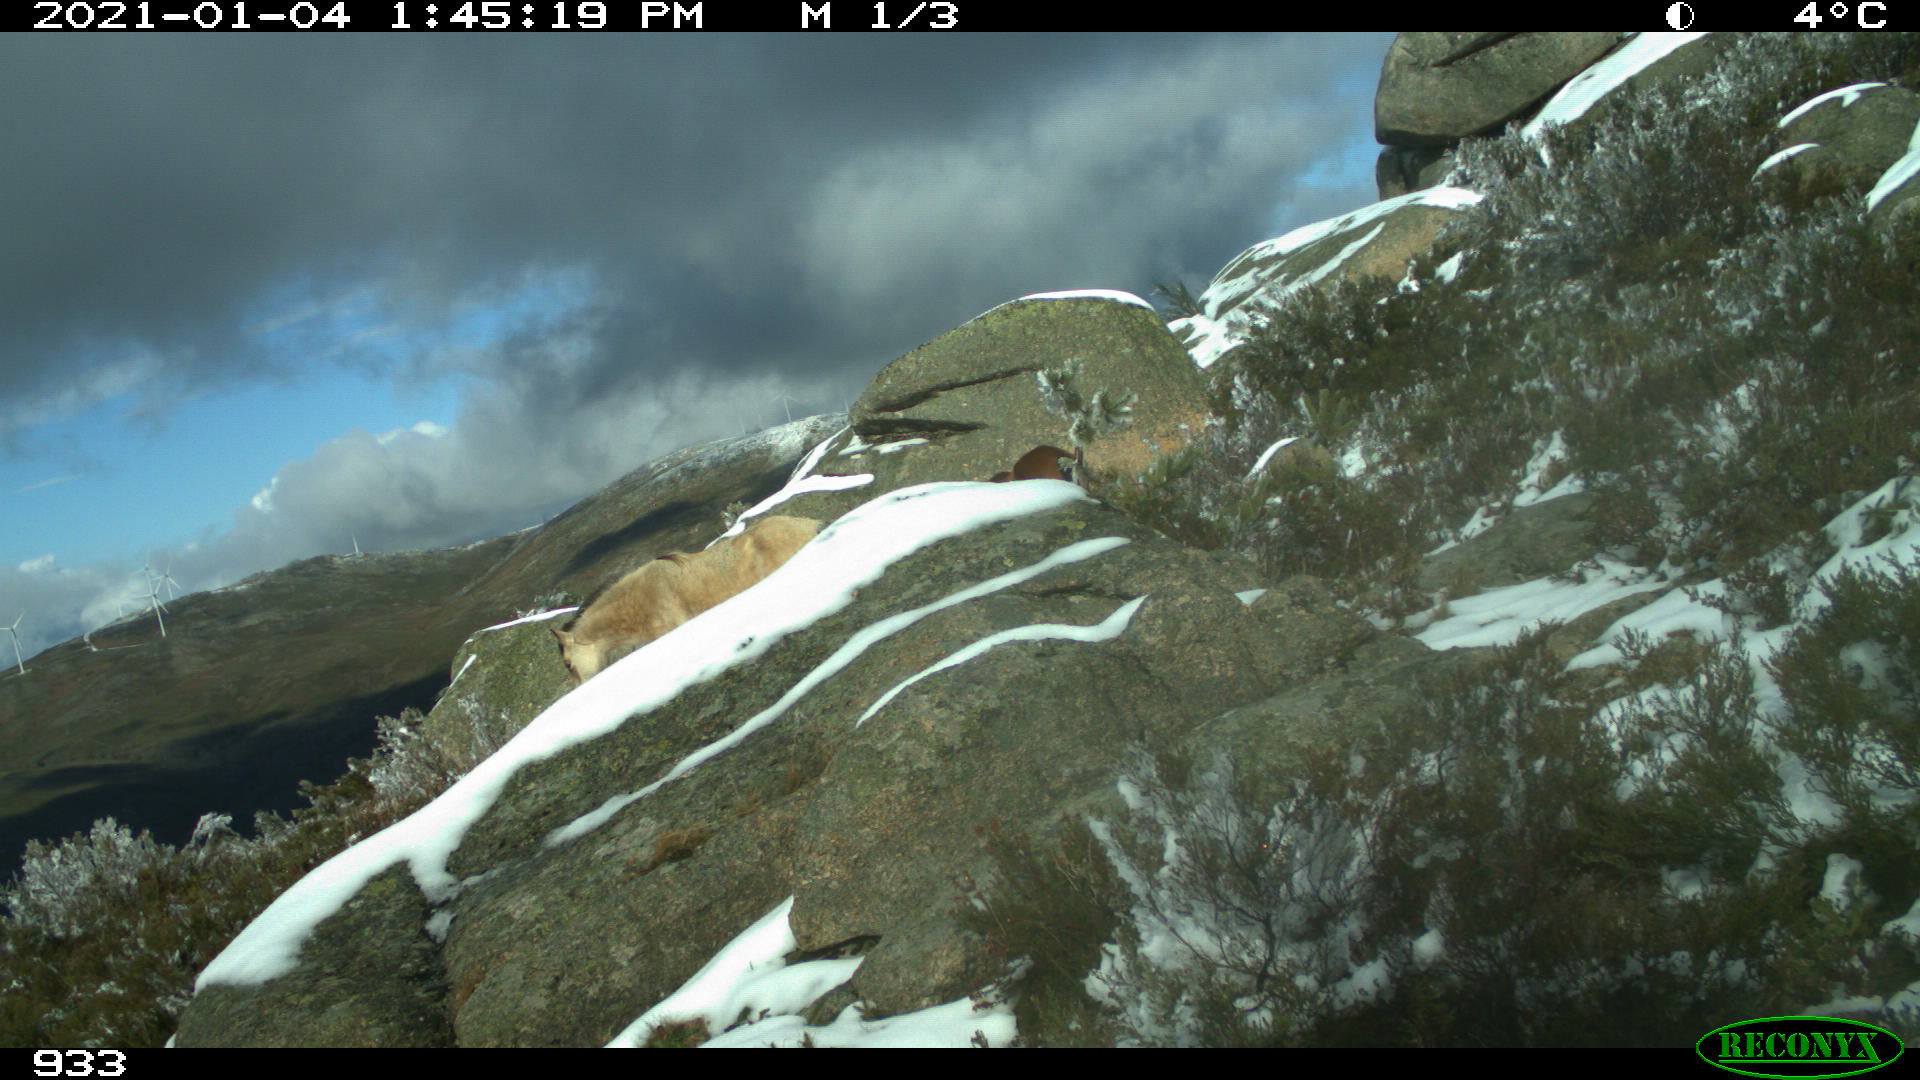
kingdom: Animalia
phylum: Chordata
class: Mammalia
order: Perissodactyla
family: Equidae
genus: Equus
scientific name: Equus caballus
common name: Horse
